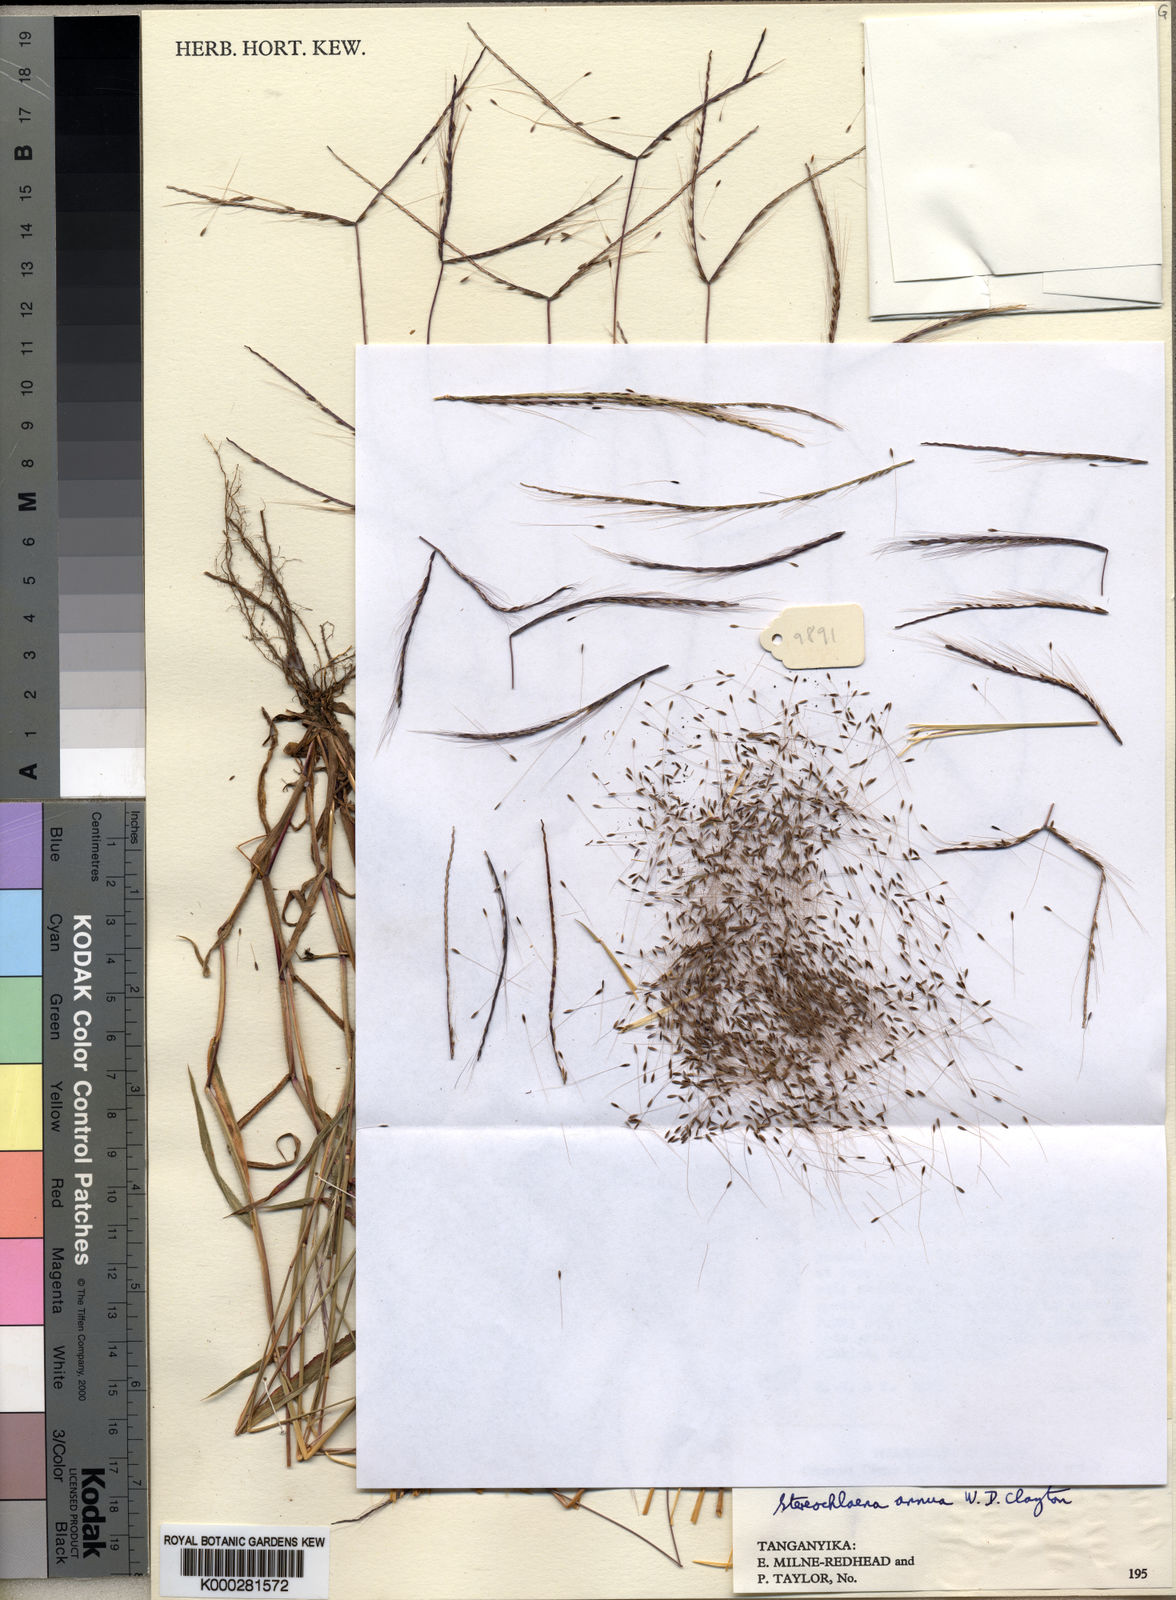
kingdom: Plantae
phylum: Tracheophyta
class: Liliopsida
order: Poales
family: Poaceae
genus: Stereochlaena
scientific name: Stereochlaena annua
